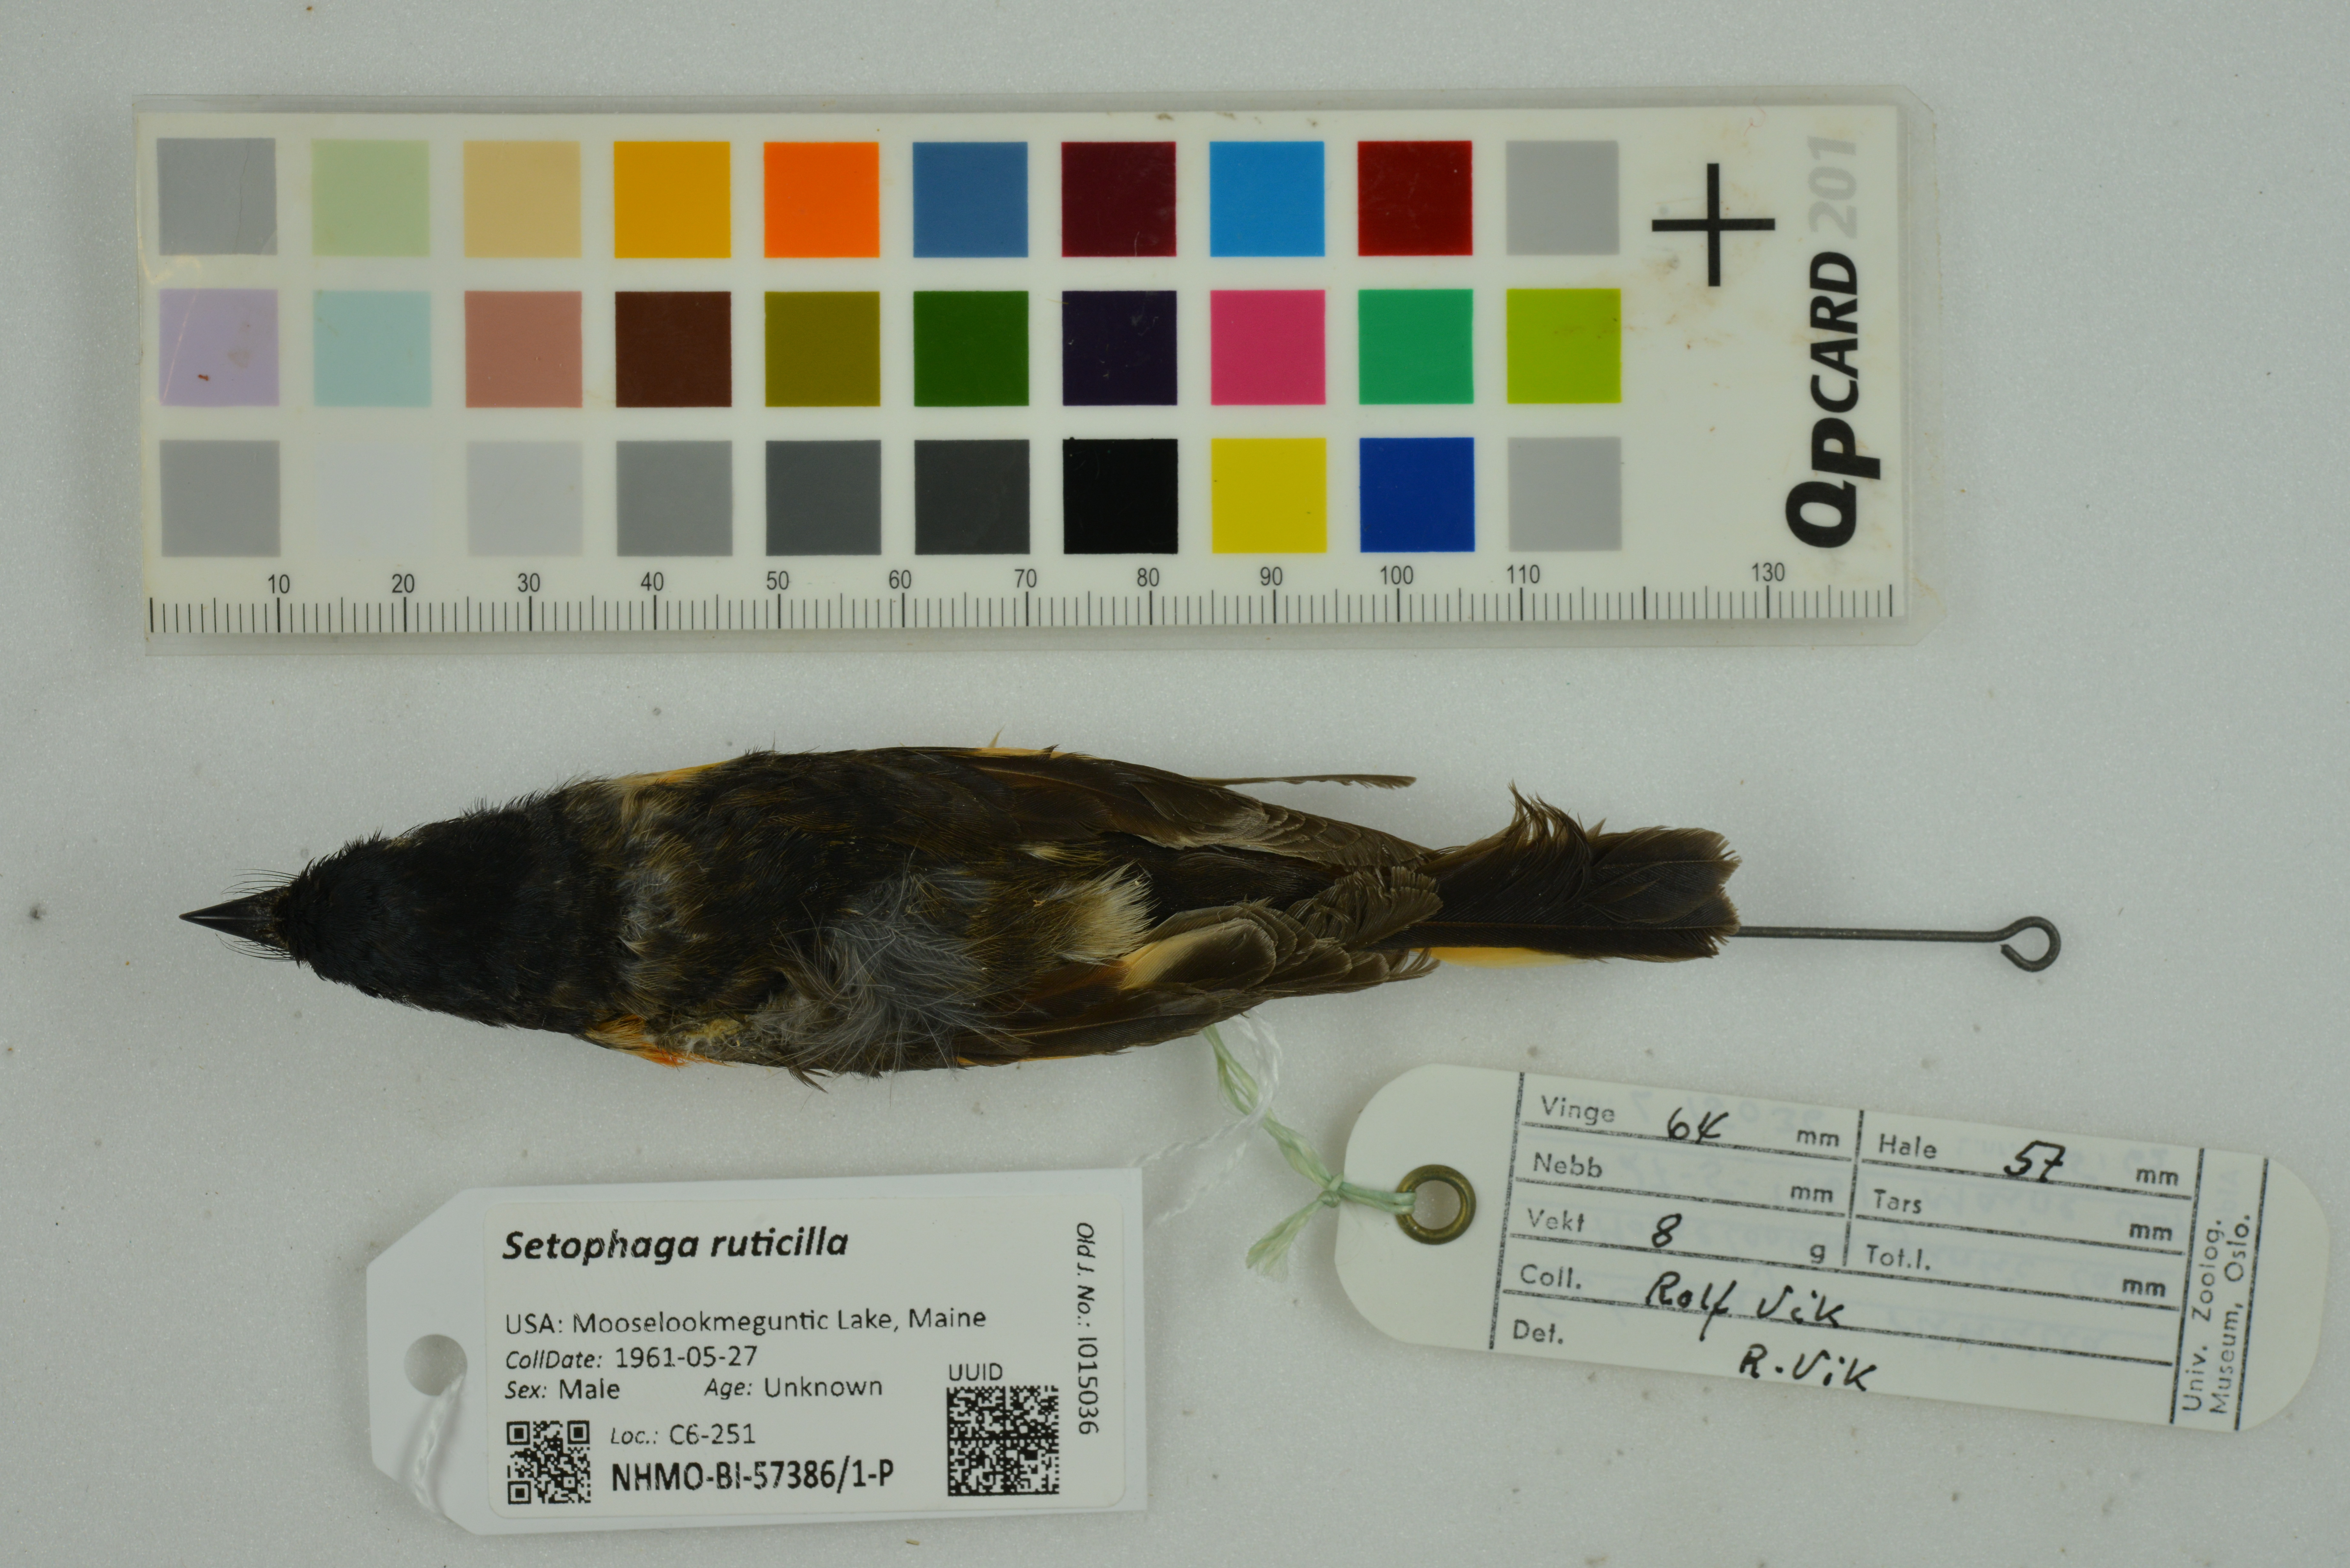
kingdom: Animalia
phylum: Chordata
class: Aves
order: Passeriformes
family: Parulidae
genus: Setophaga
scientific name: Setophaga ruticilla
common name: American redstart
